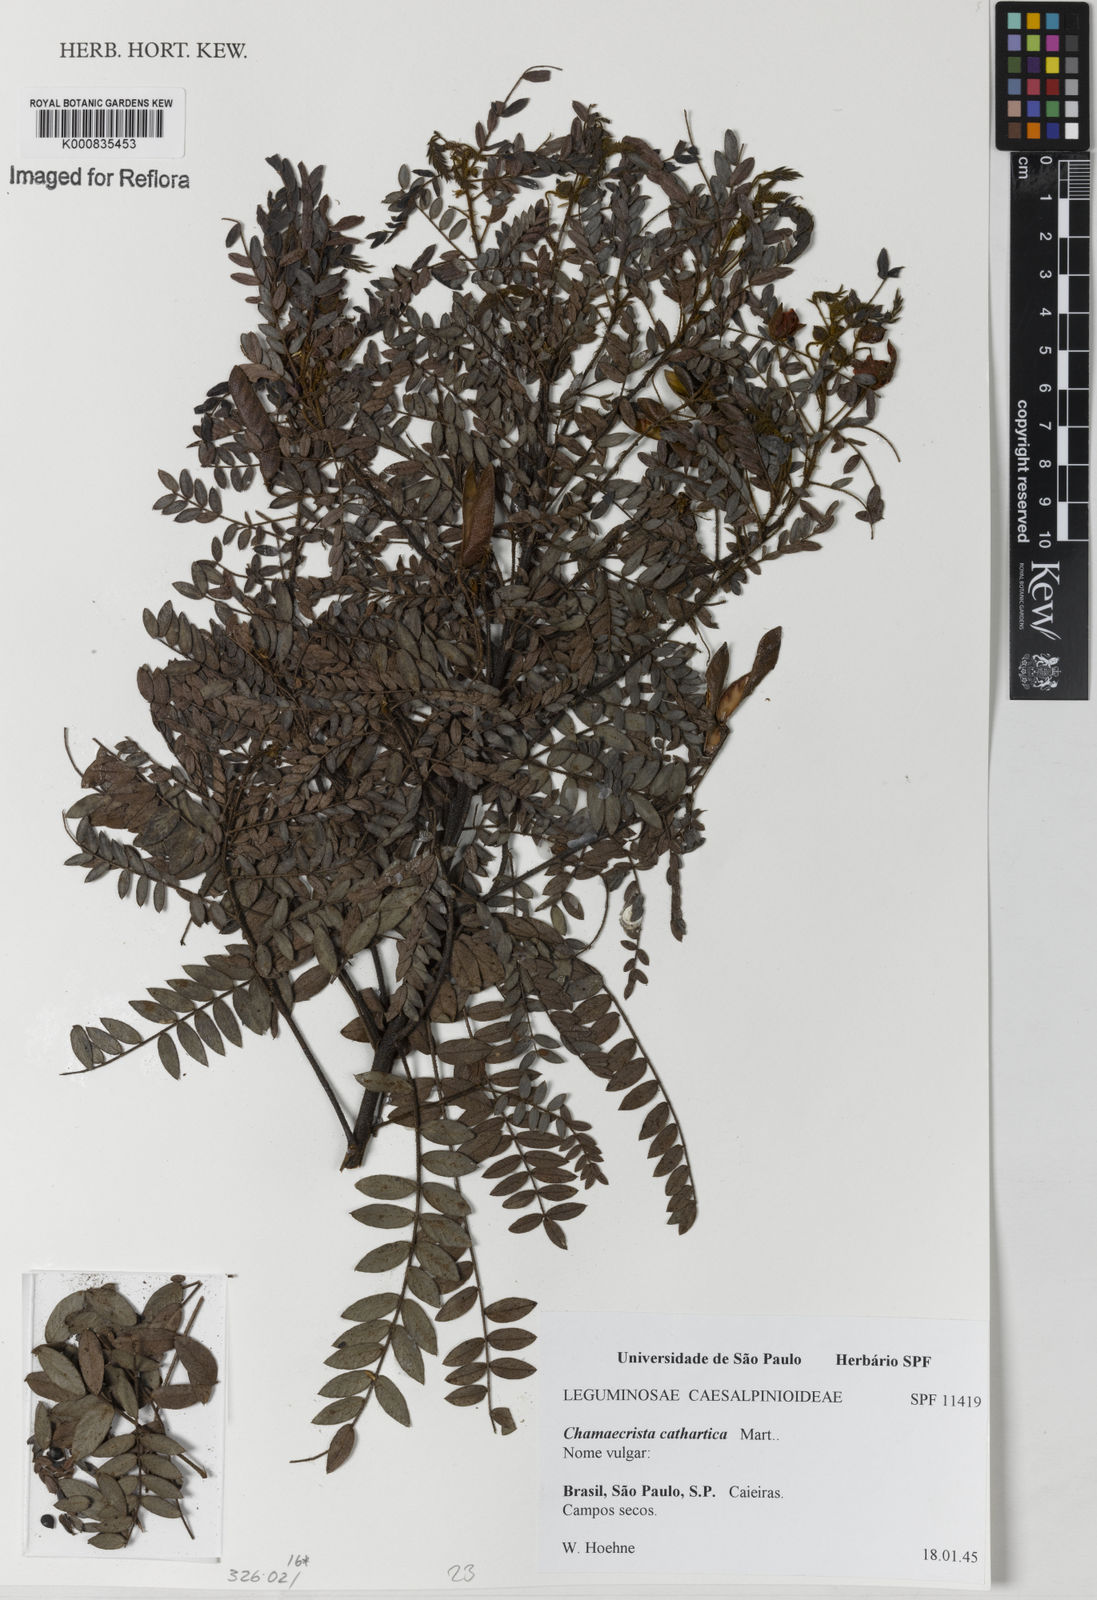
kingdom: Plantae
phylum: Tracheophyta
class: Magnoliopsida
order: Fabales
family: Fabaceae
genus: Chamaecrista
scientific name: Chamaecrista cathartica
